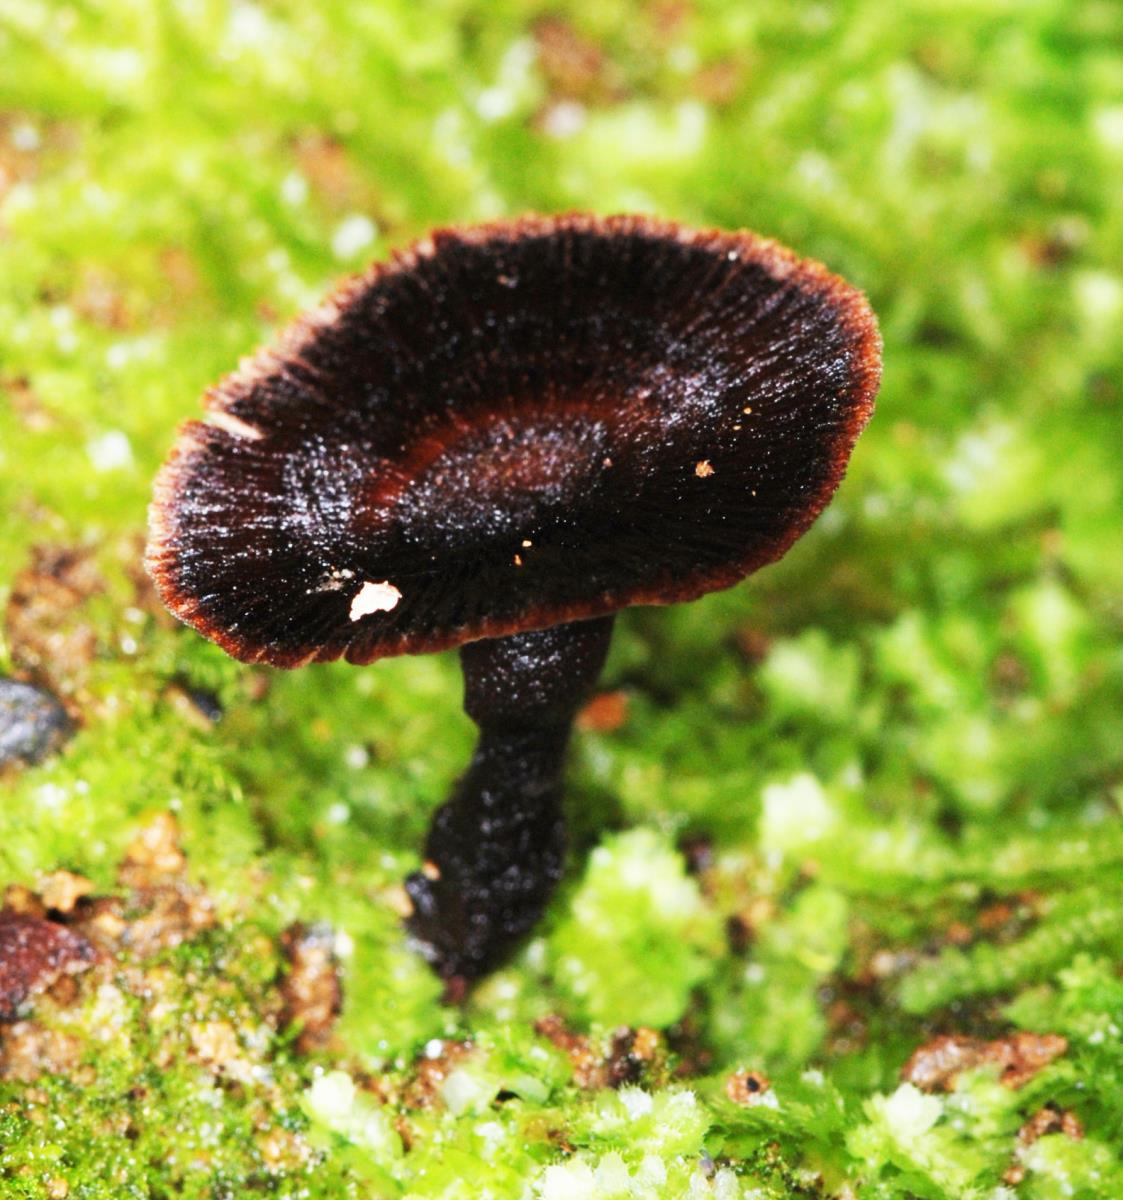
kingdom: Fungi
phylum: Basidiomycota
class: Agaricomycetes
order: Hymenochaetales
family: Hymenochaetaceae
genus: Coltricia
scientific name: Coltricia cinnamomea
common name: Shiny cinnamon polypore
